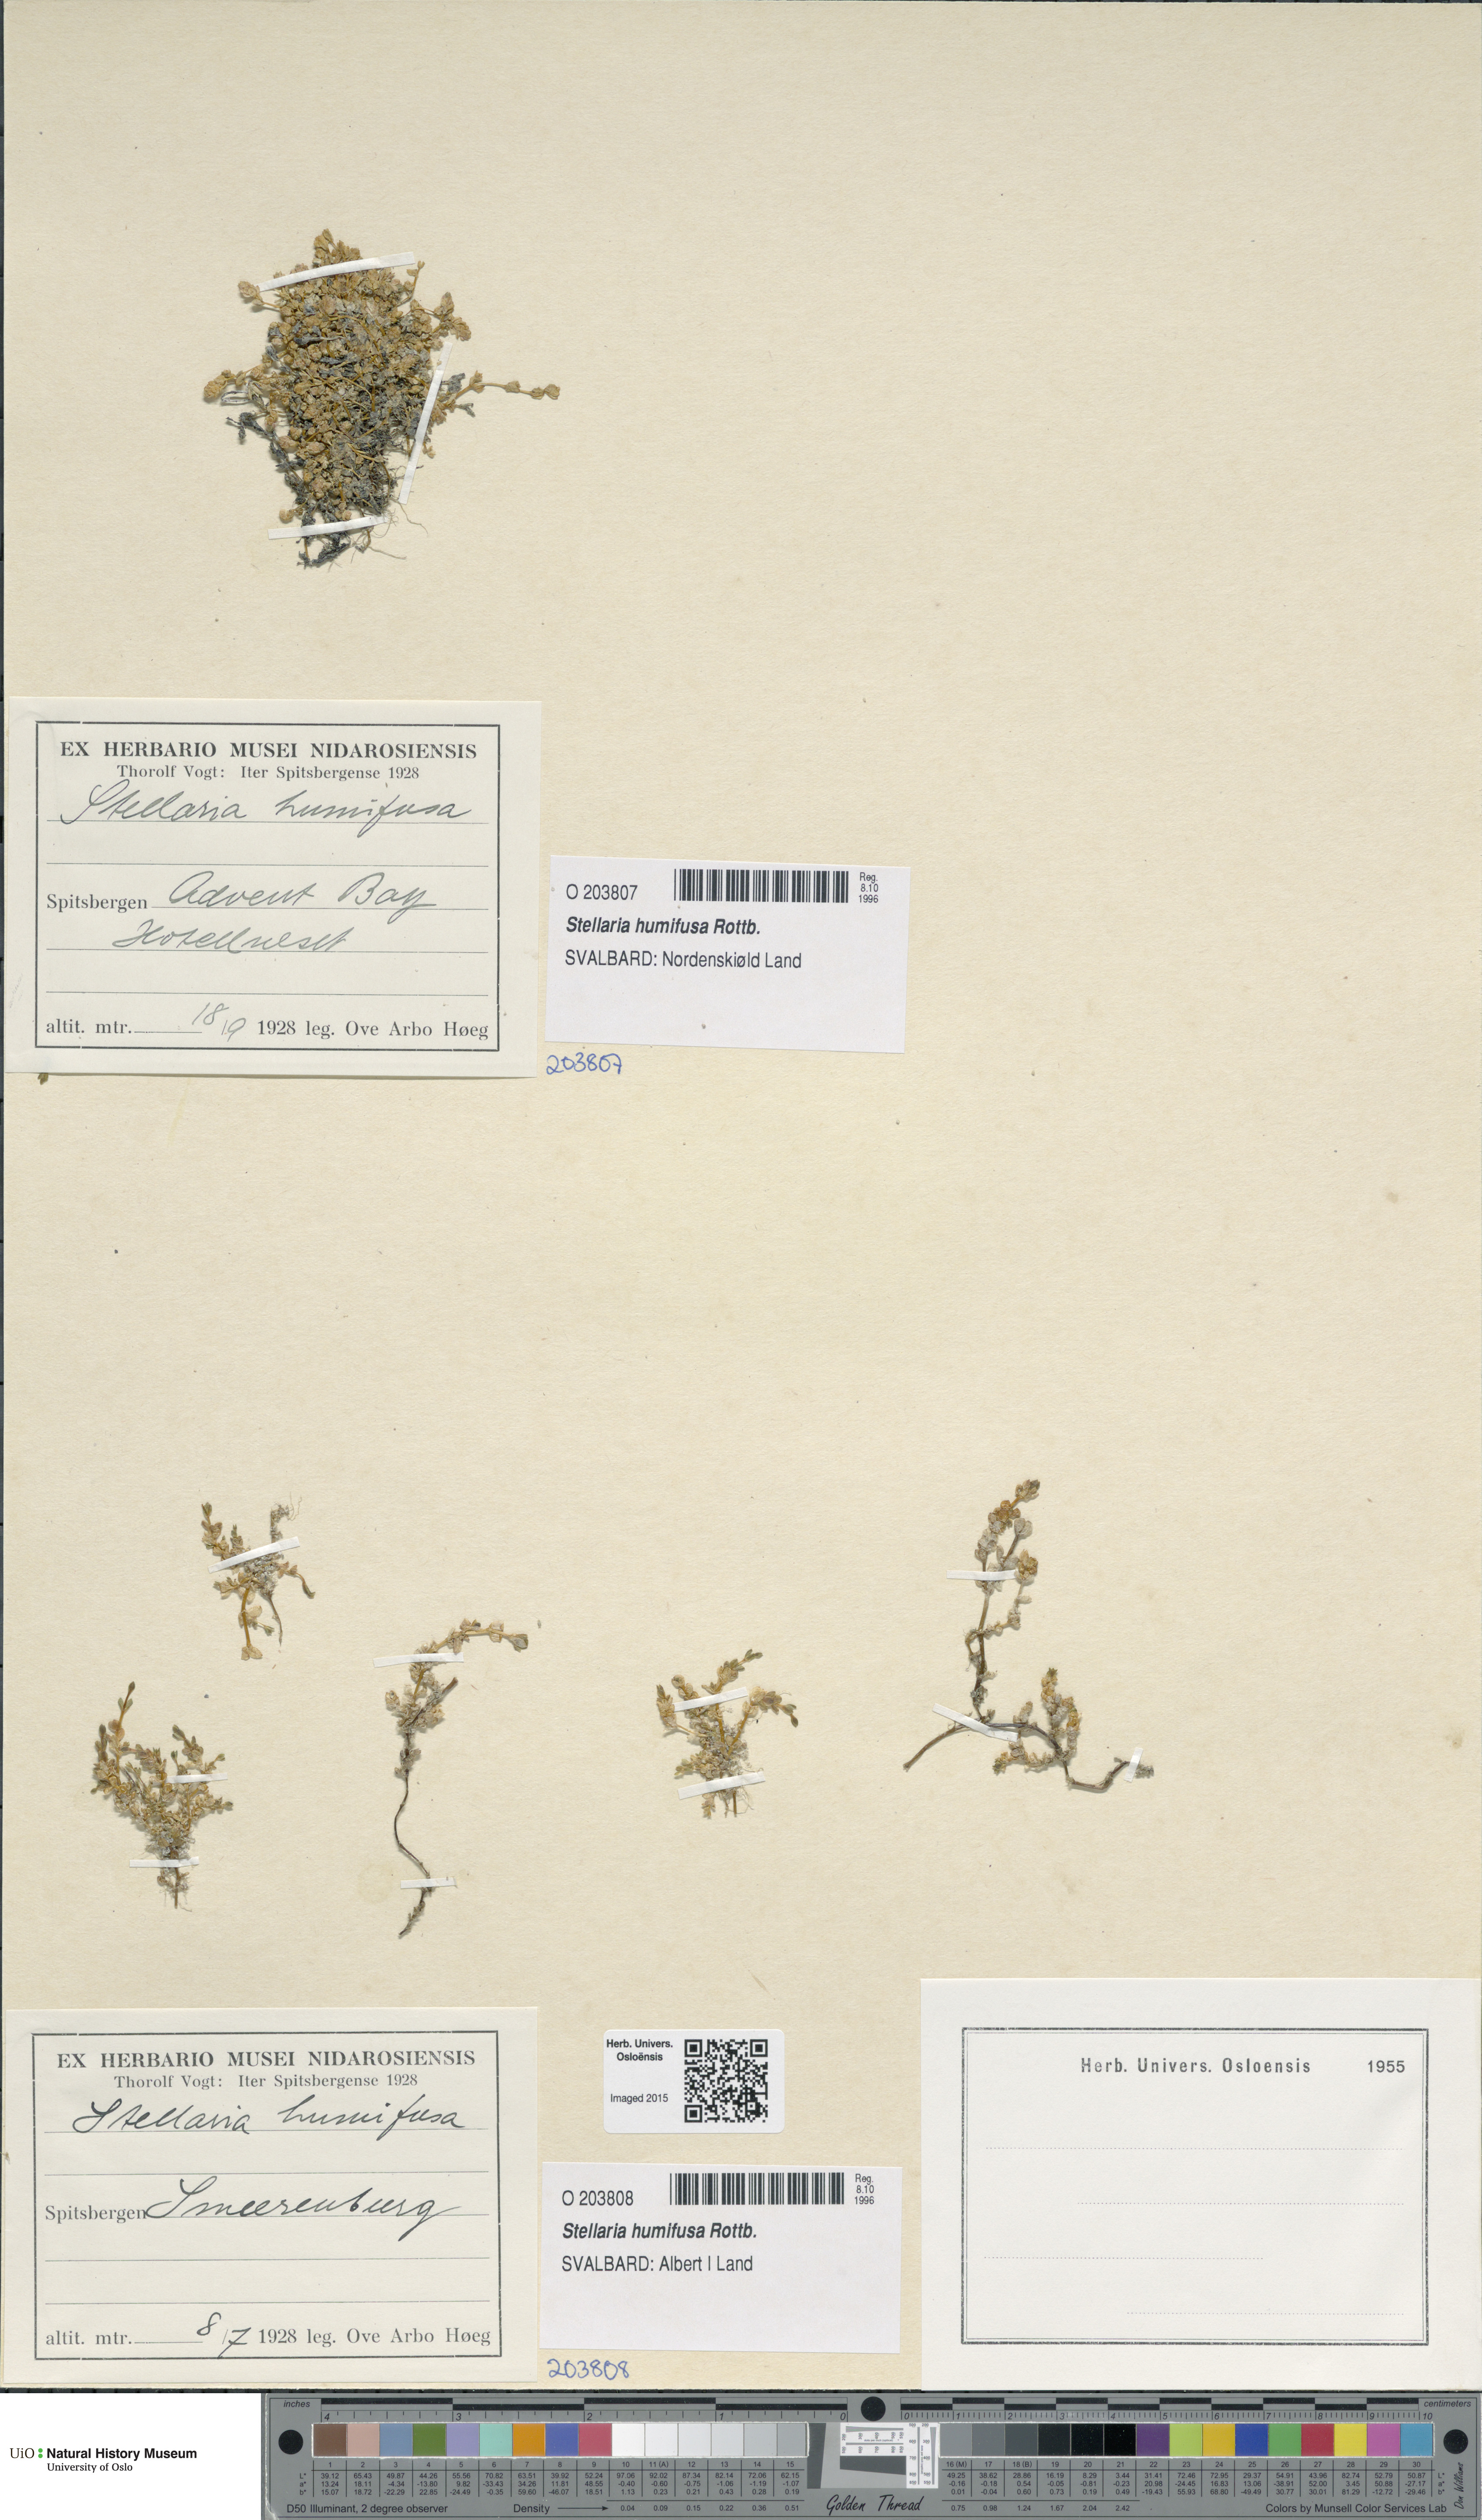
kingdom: Plantae
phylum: Tracheophyta
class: Magnoliopsida
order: Caryophyllales
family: Caryophyllaceae
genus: Stellaria
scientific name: Stellaria humifusa
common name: Creeping starwort
